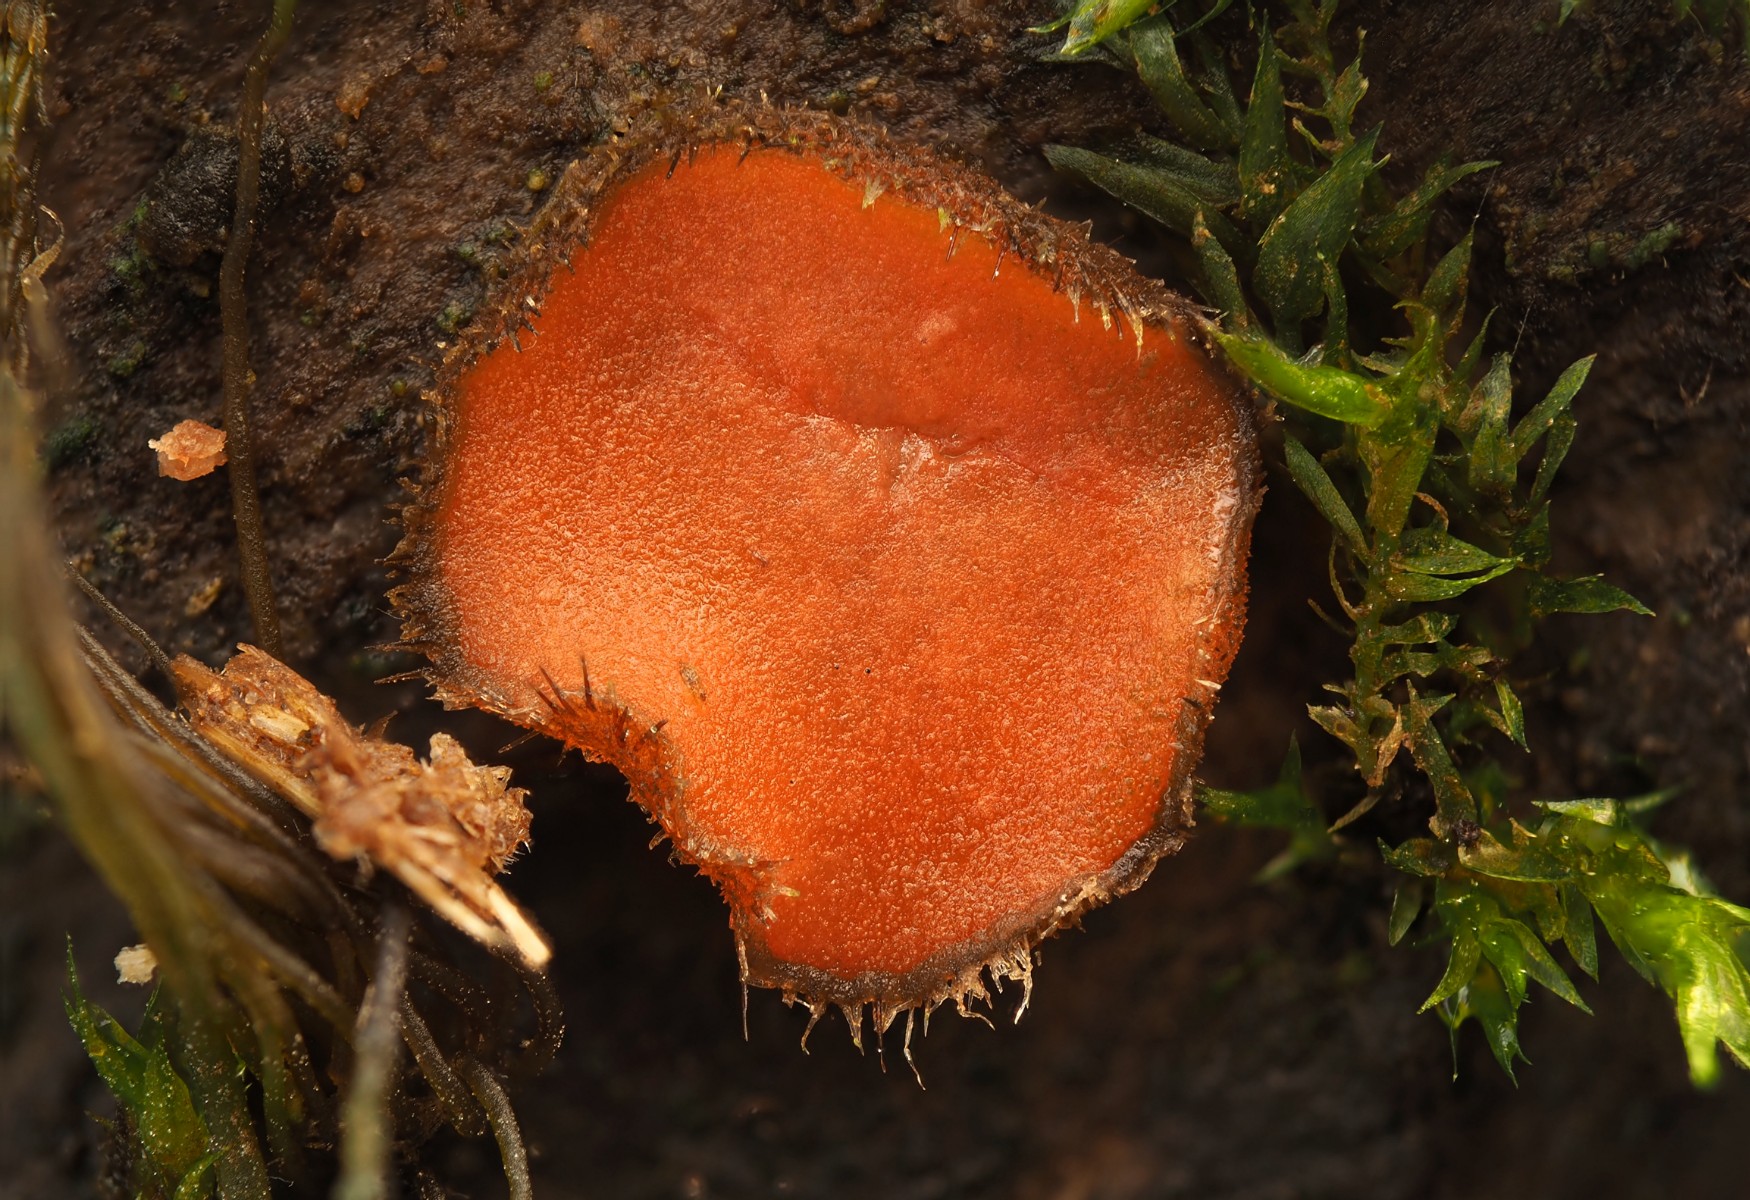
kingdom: Fungi
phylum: Ascomycota
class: Pezizomycetes
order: Pezizales
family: Pyronemataceae
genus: Scutellinia
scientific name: Scutellinia
